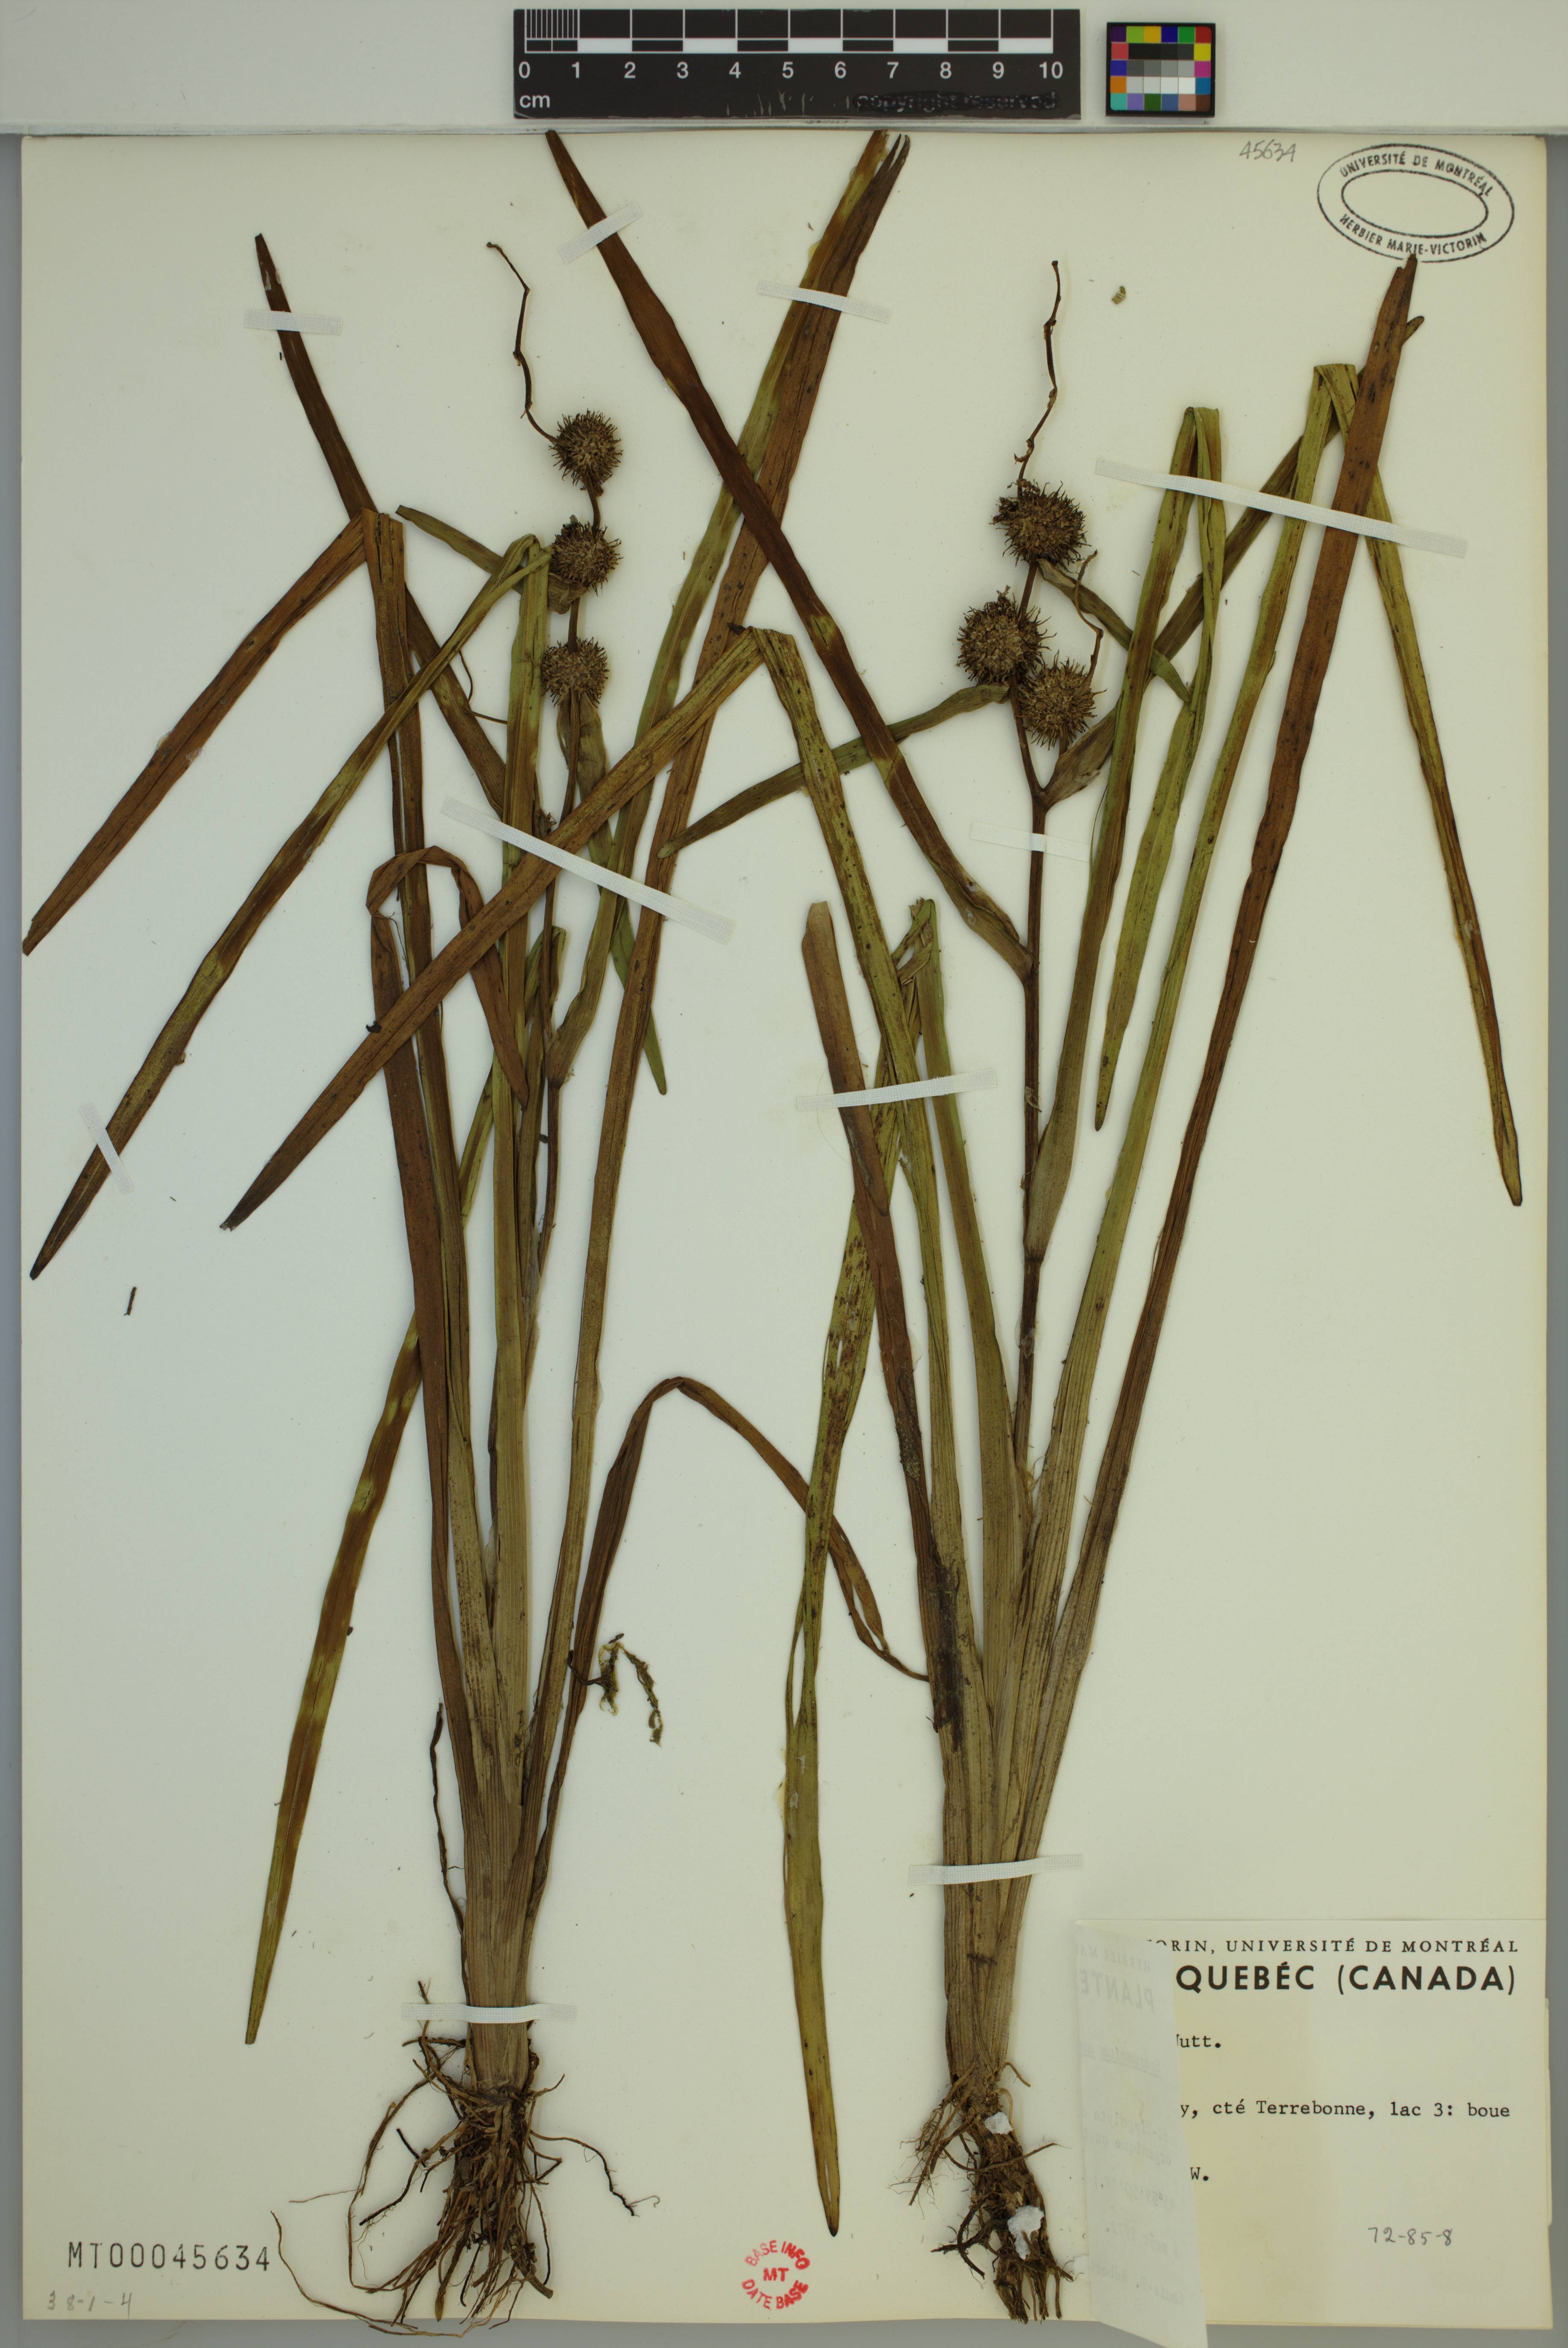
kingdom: Plantae
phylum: Tracheophyta
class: Liliopsida
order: Poales
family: Typhaceae
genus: Sparganium
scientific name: Sparganium americanum
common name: American burreed
